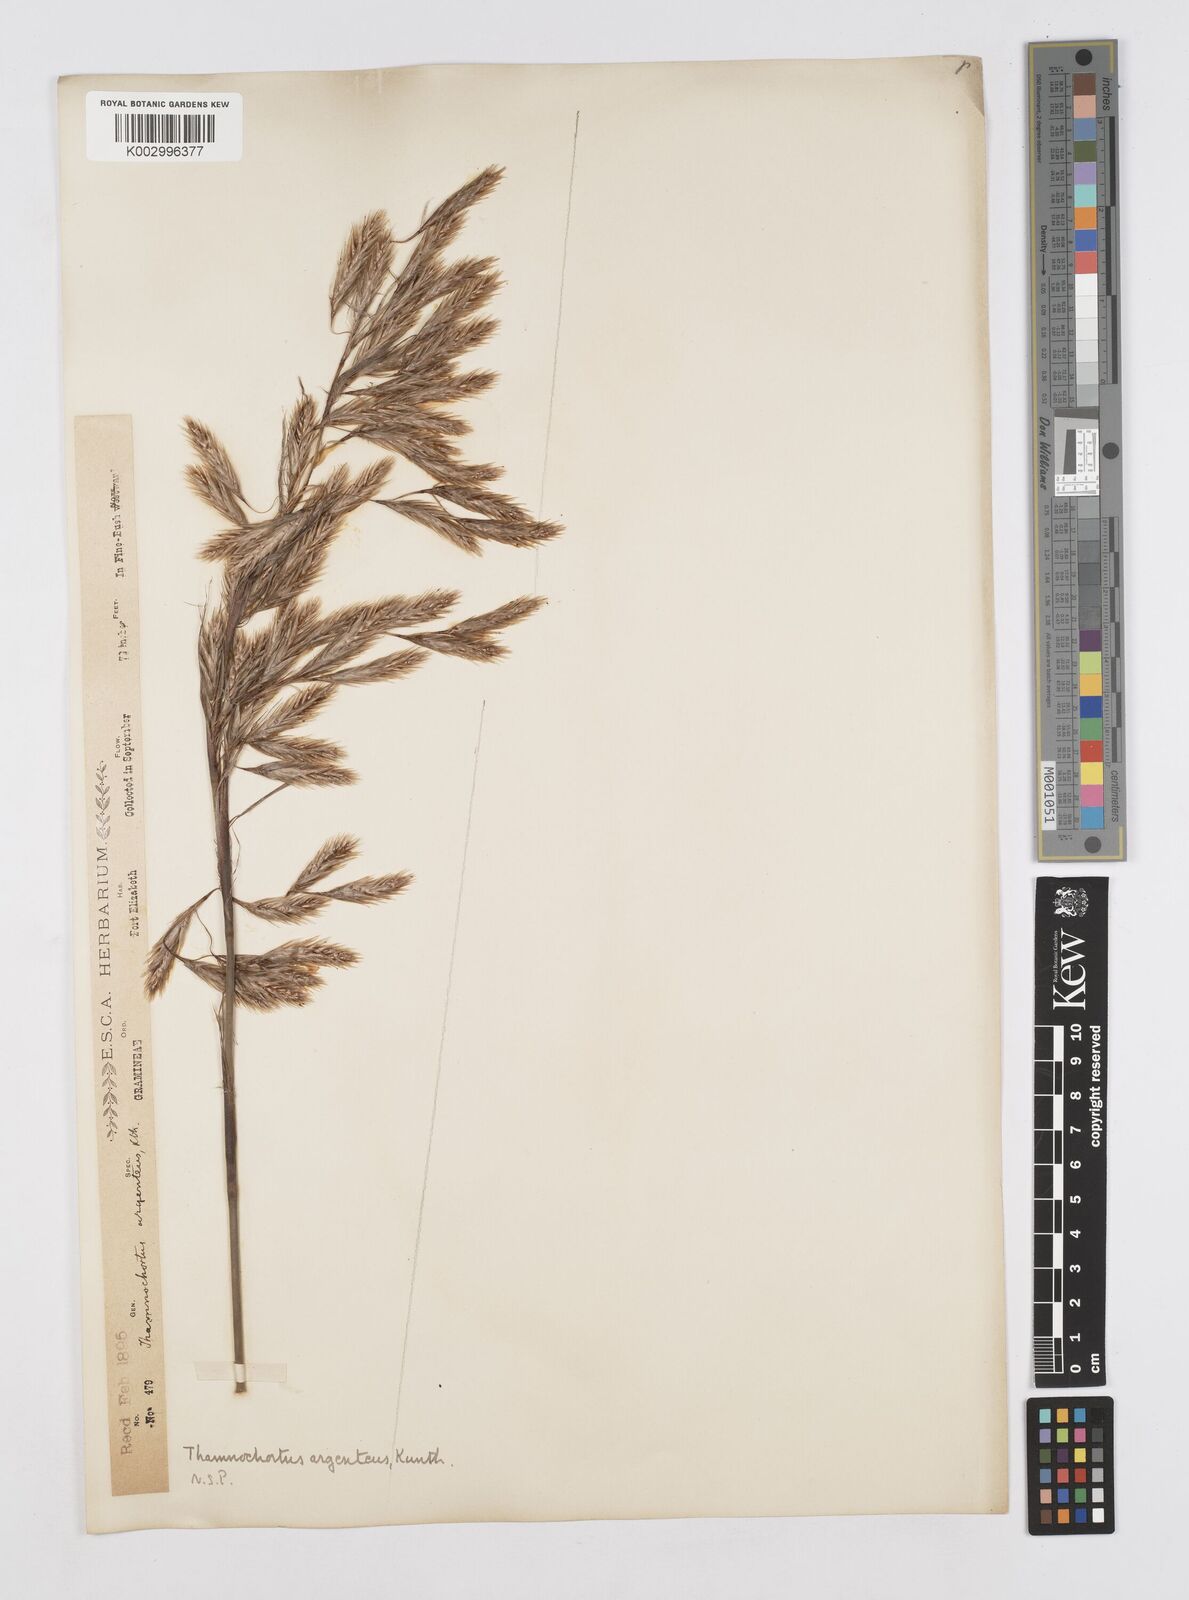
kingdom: Plantae
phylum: Tracheophyta
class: Liliopsida
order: Poales
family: Restionaceae
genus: Hypodiscus
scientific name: Hypodiscus argenteus
